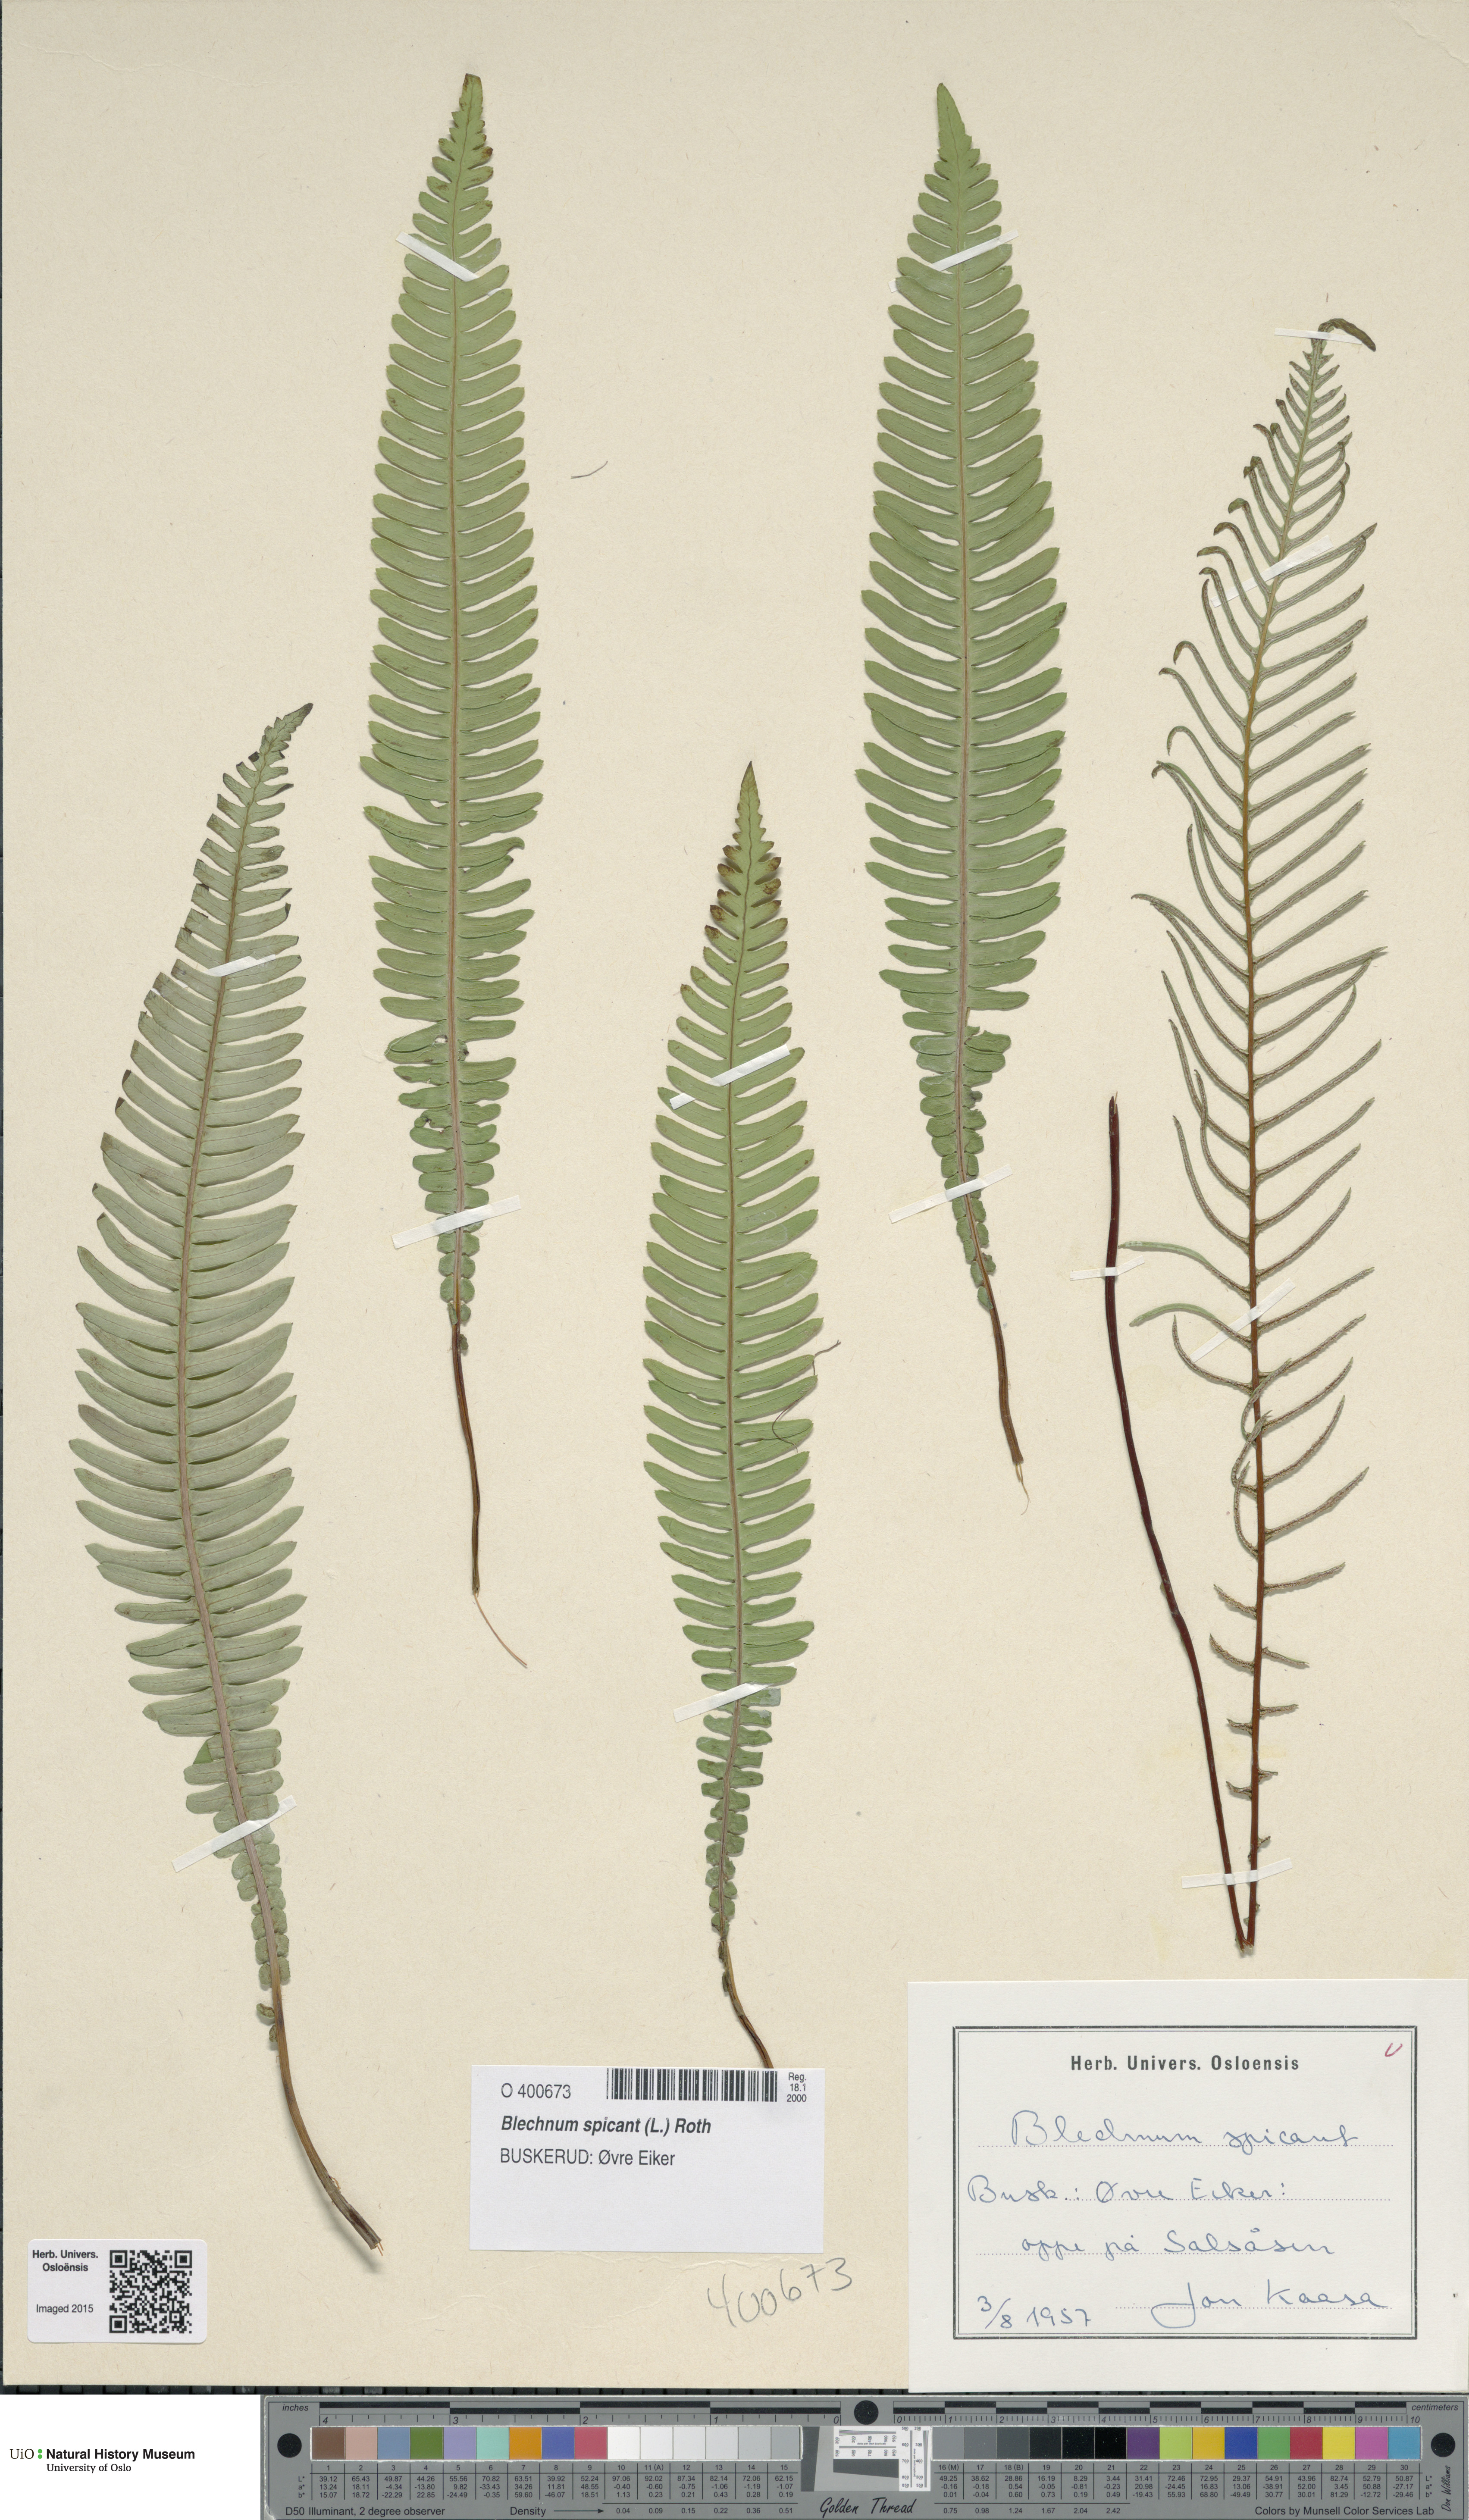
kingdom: Plantae
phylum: Tracheophyta
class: Polypodiopsida
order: Polypodiales
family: Blechnaceae
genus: Struthiopteris
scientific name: Struthiopteris spicant
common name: Deer fern
